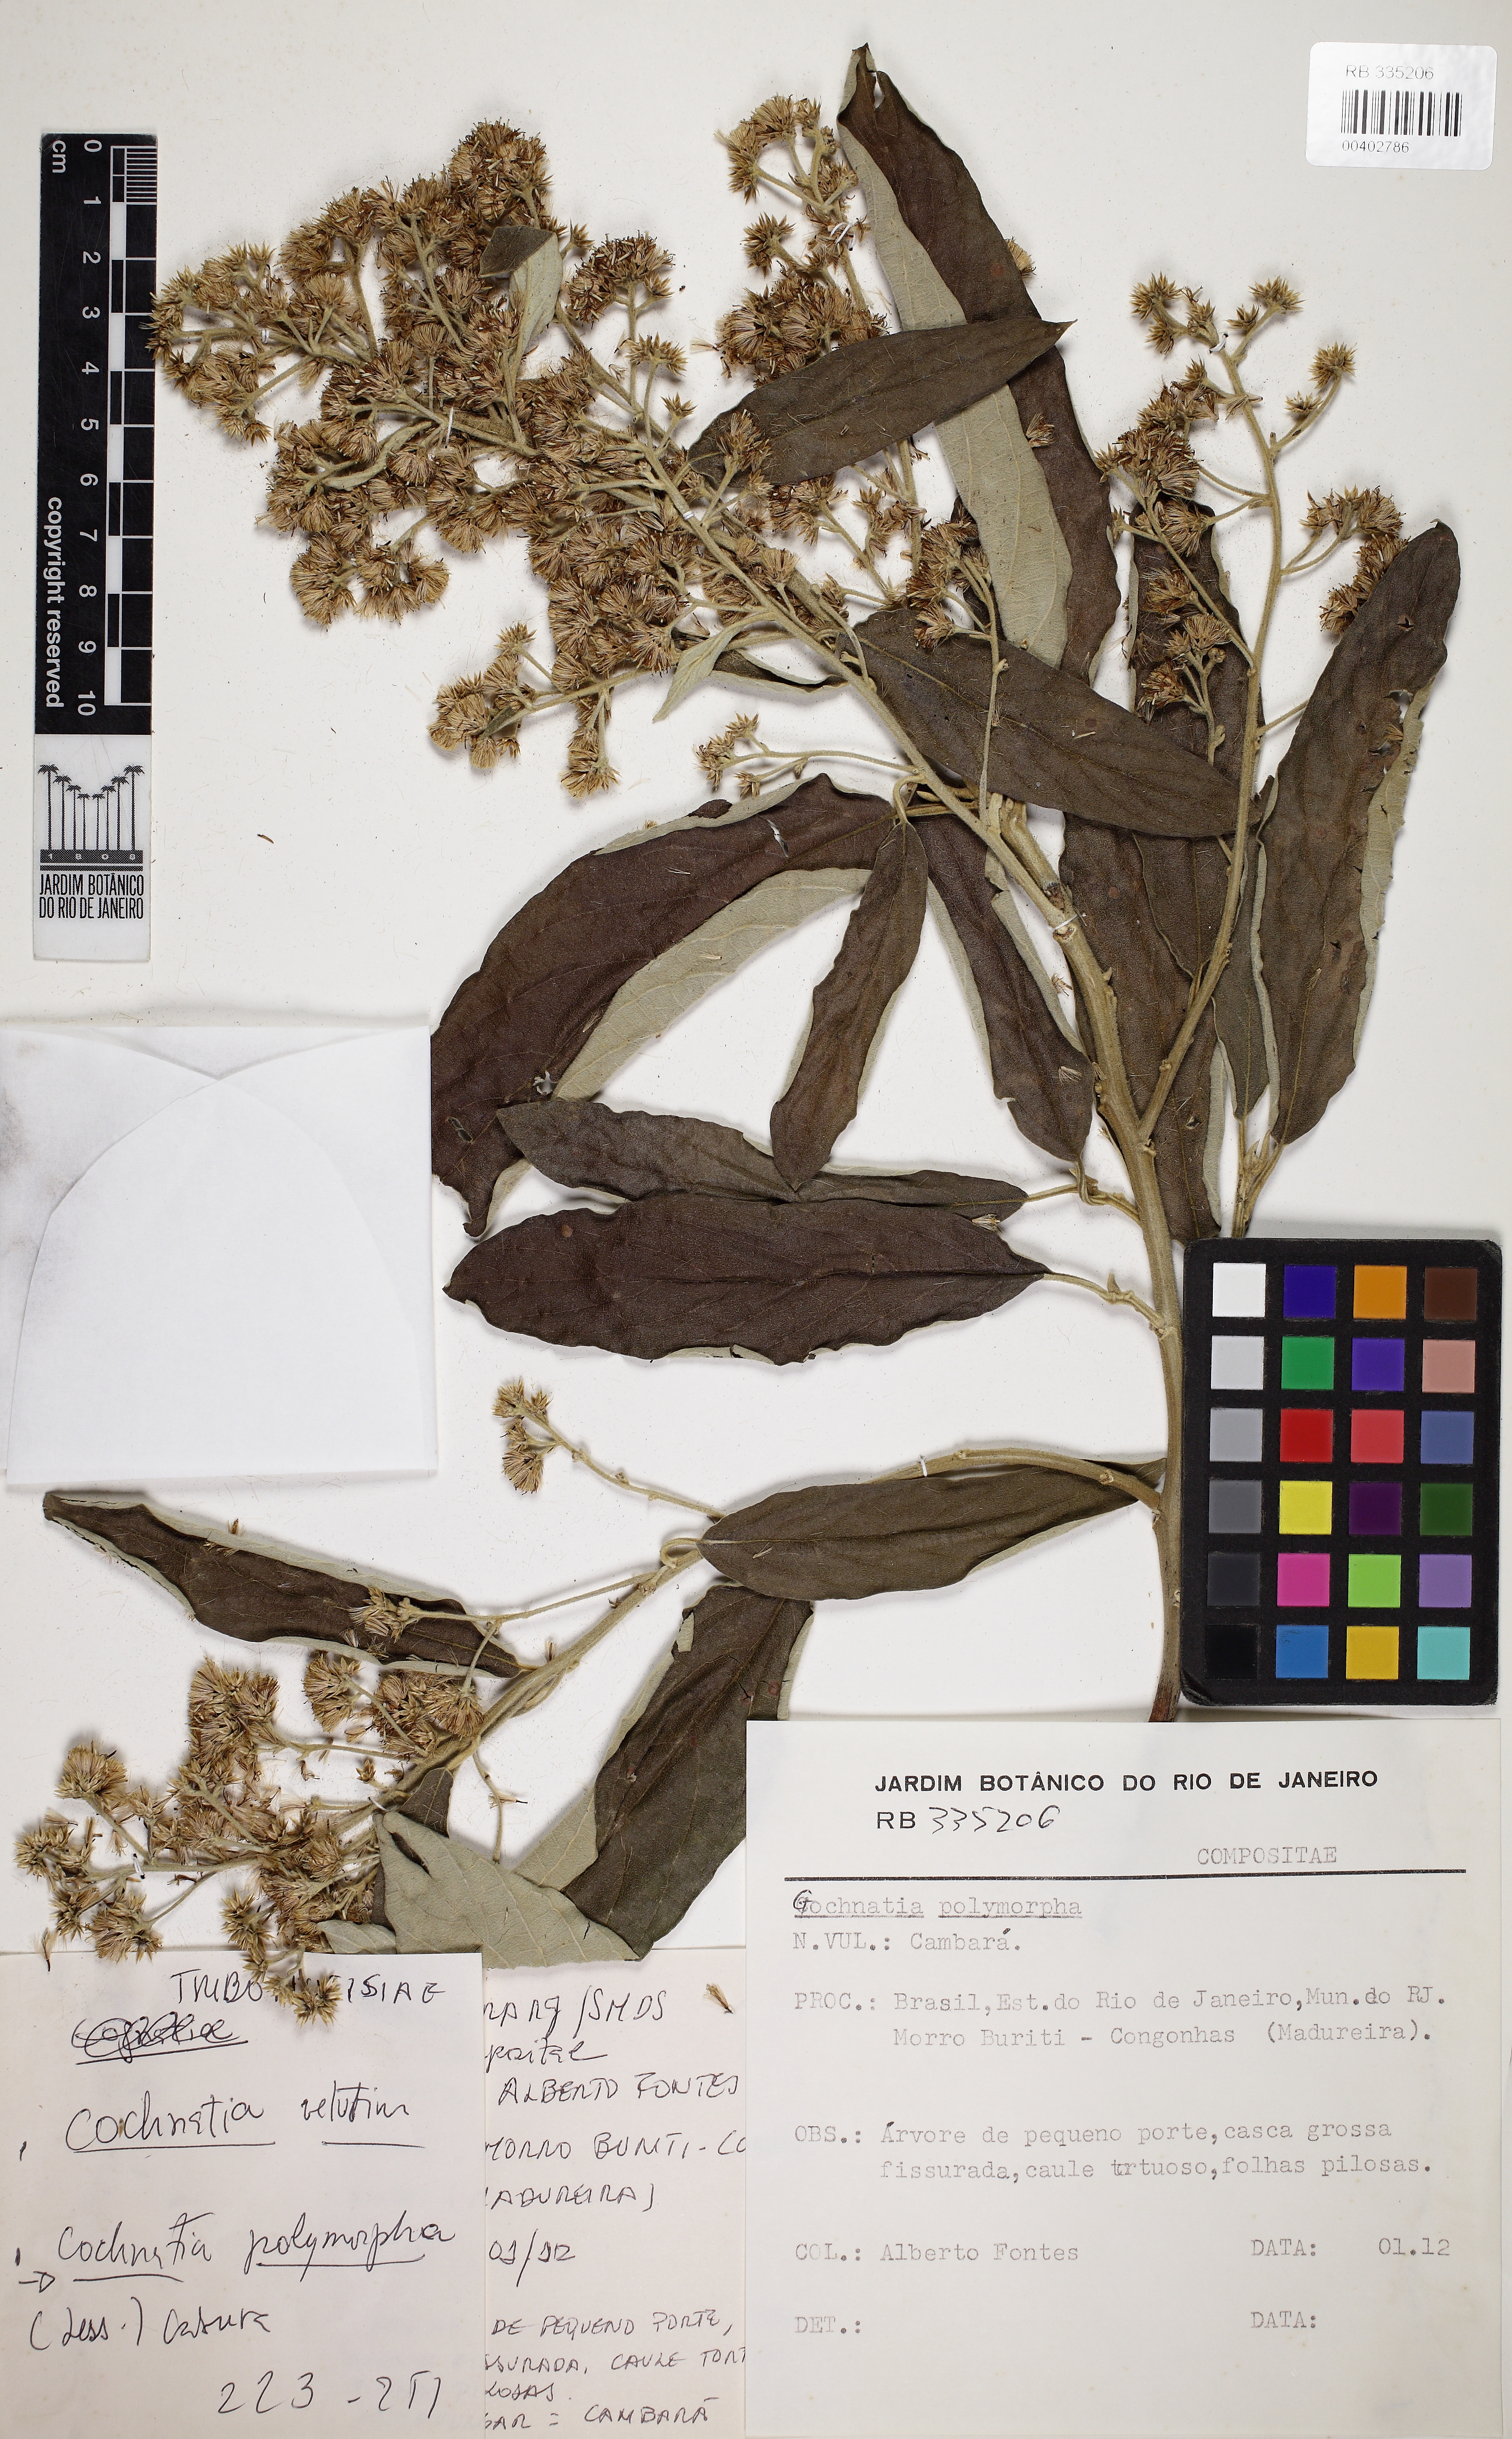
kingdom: Plantae
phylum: Tracheophyta
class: Magnoliopsida
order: Asterales
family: Asteraceae
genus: Moquiniastrum
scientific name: Moquiniastrum polymorphum
